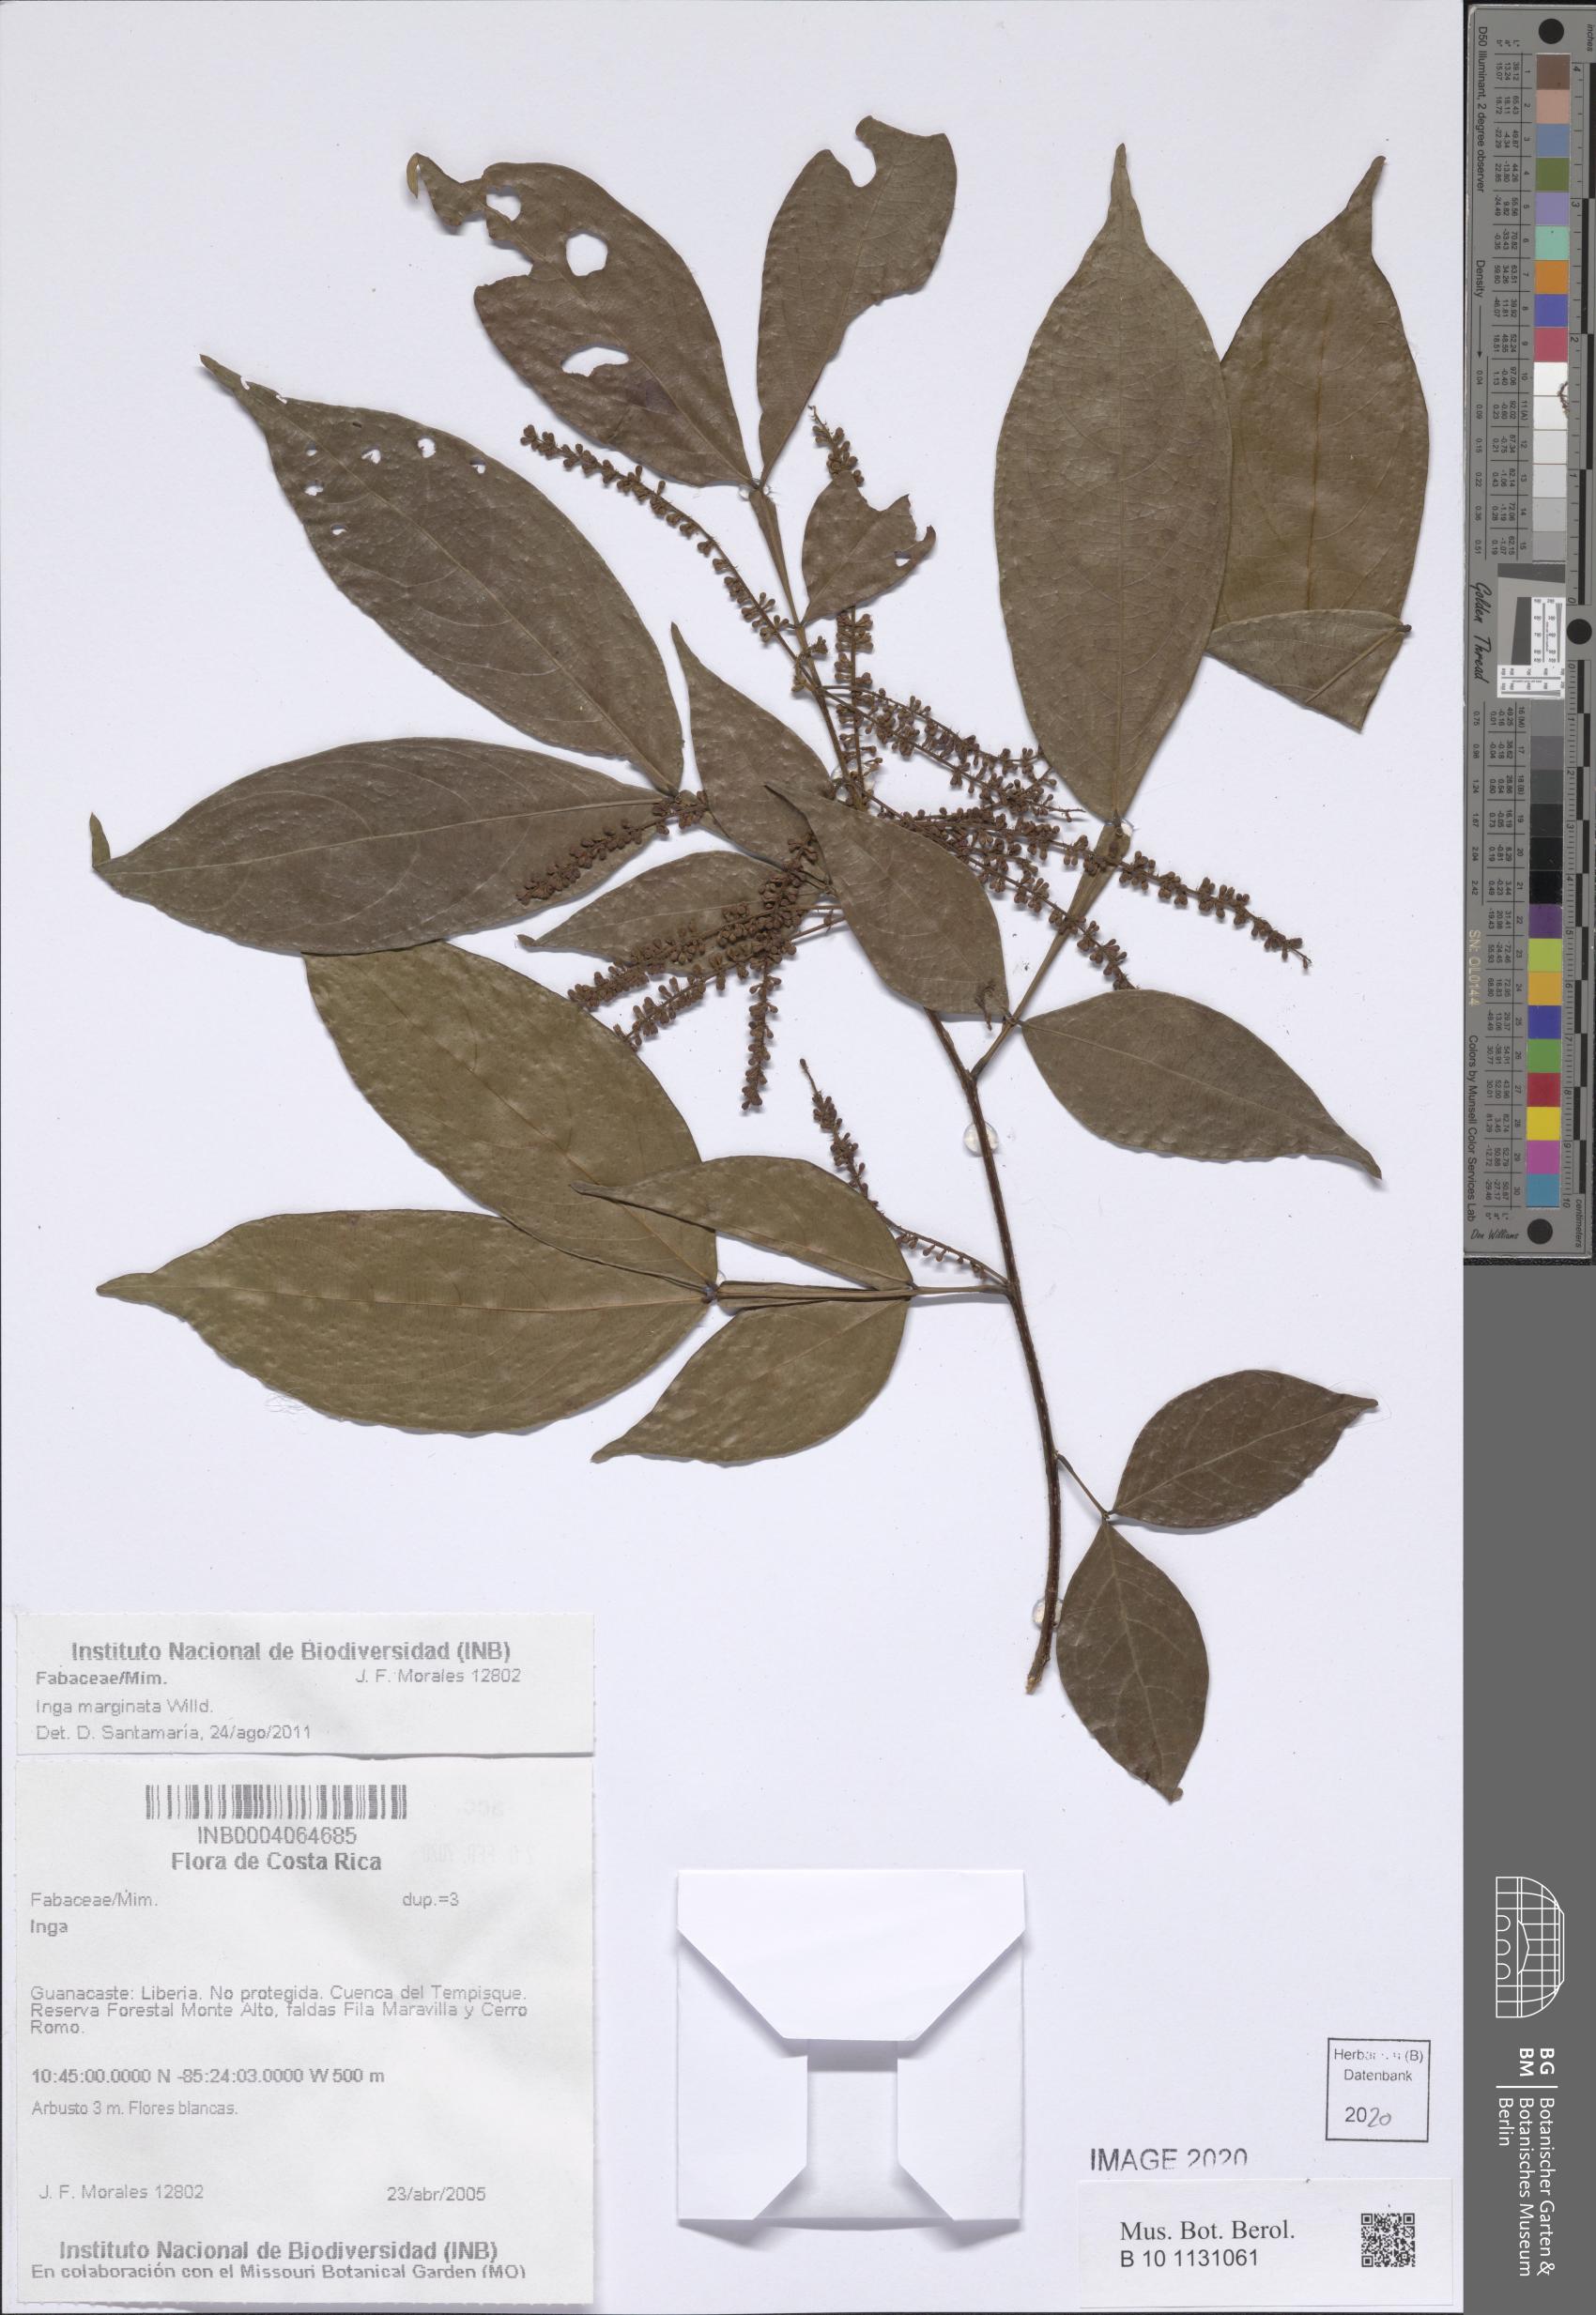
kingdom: Plantae
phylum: Tracheophyta
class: Magnoliopsida
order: Fabales
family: Fabaceae
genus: Inga
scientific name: Inga marginata
